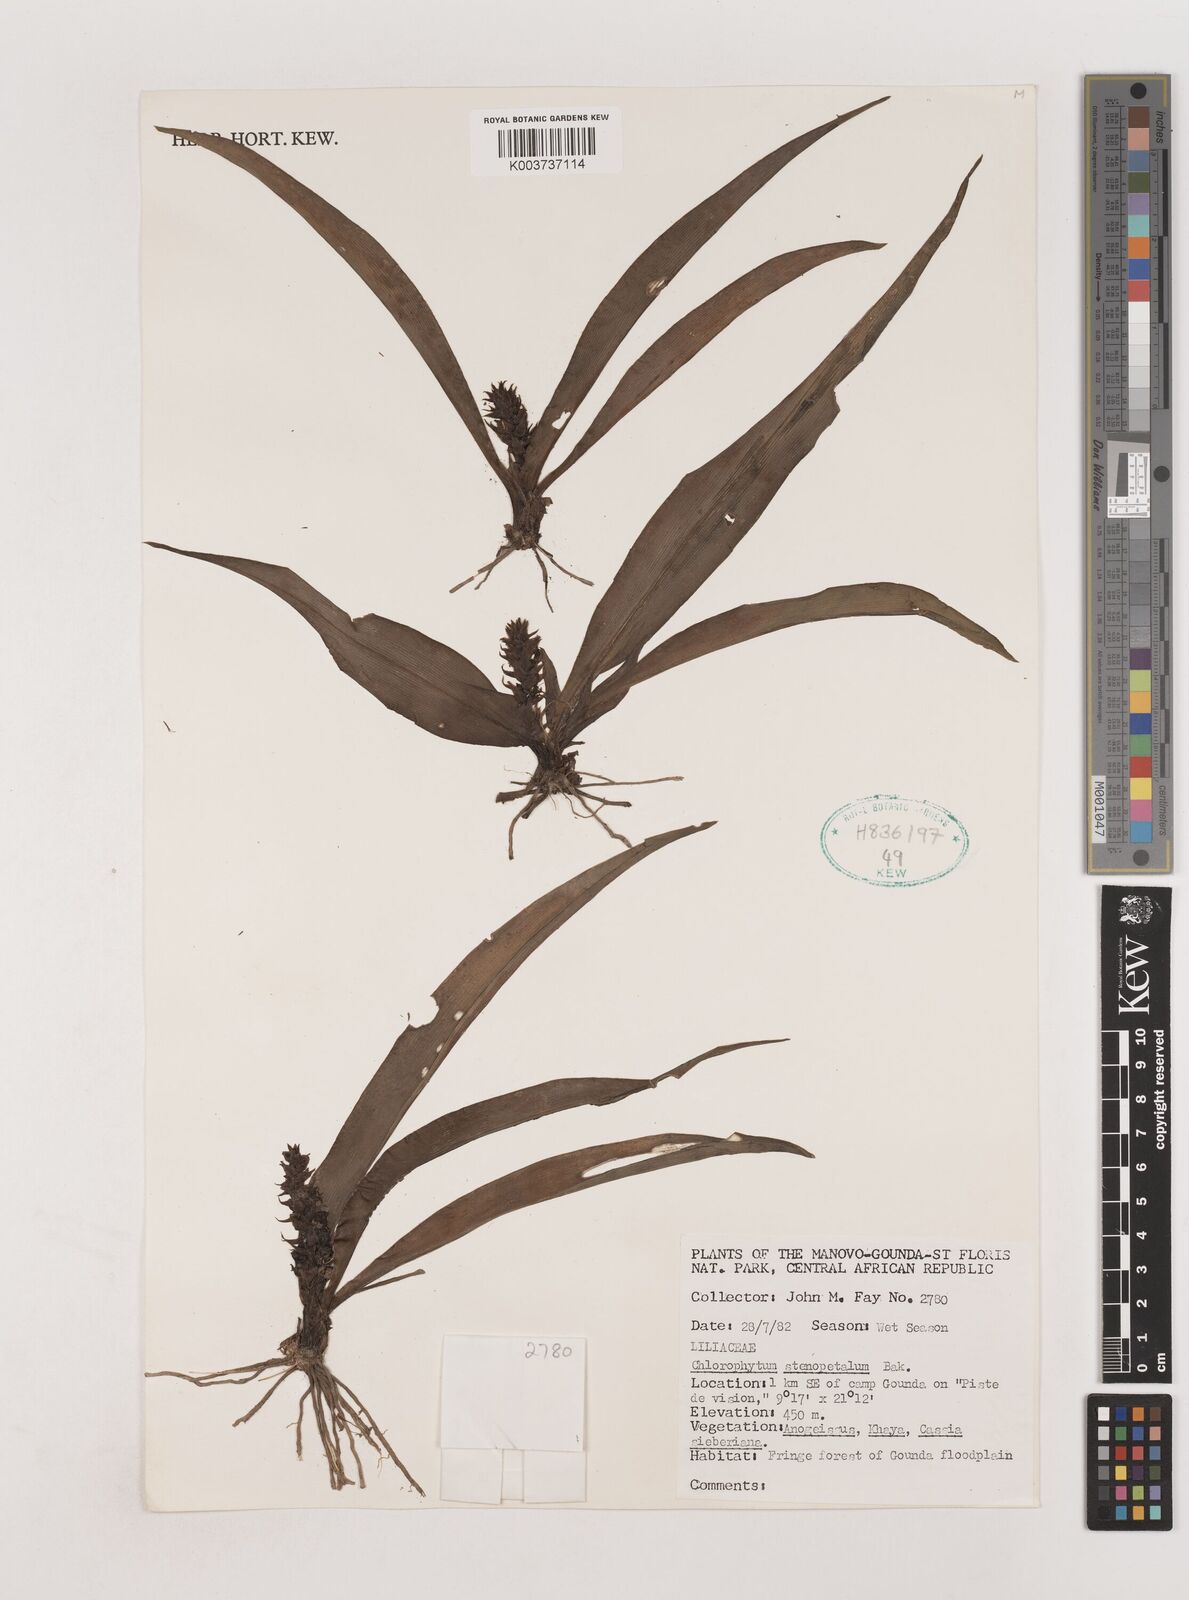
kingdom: Plantae
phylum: Tracheophyta
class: Liliopsida
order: Asparagales
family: Asparagaceae
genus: Chlorophytum
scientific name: Chlorophytum stenopetalum
